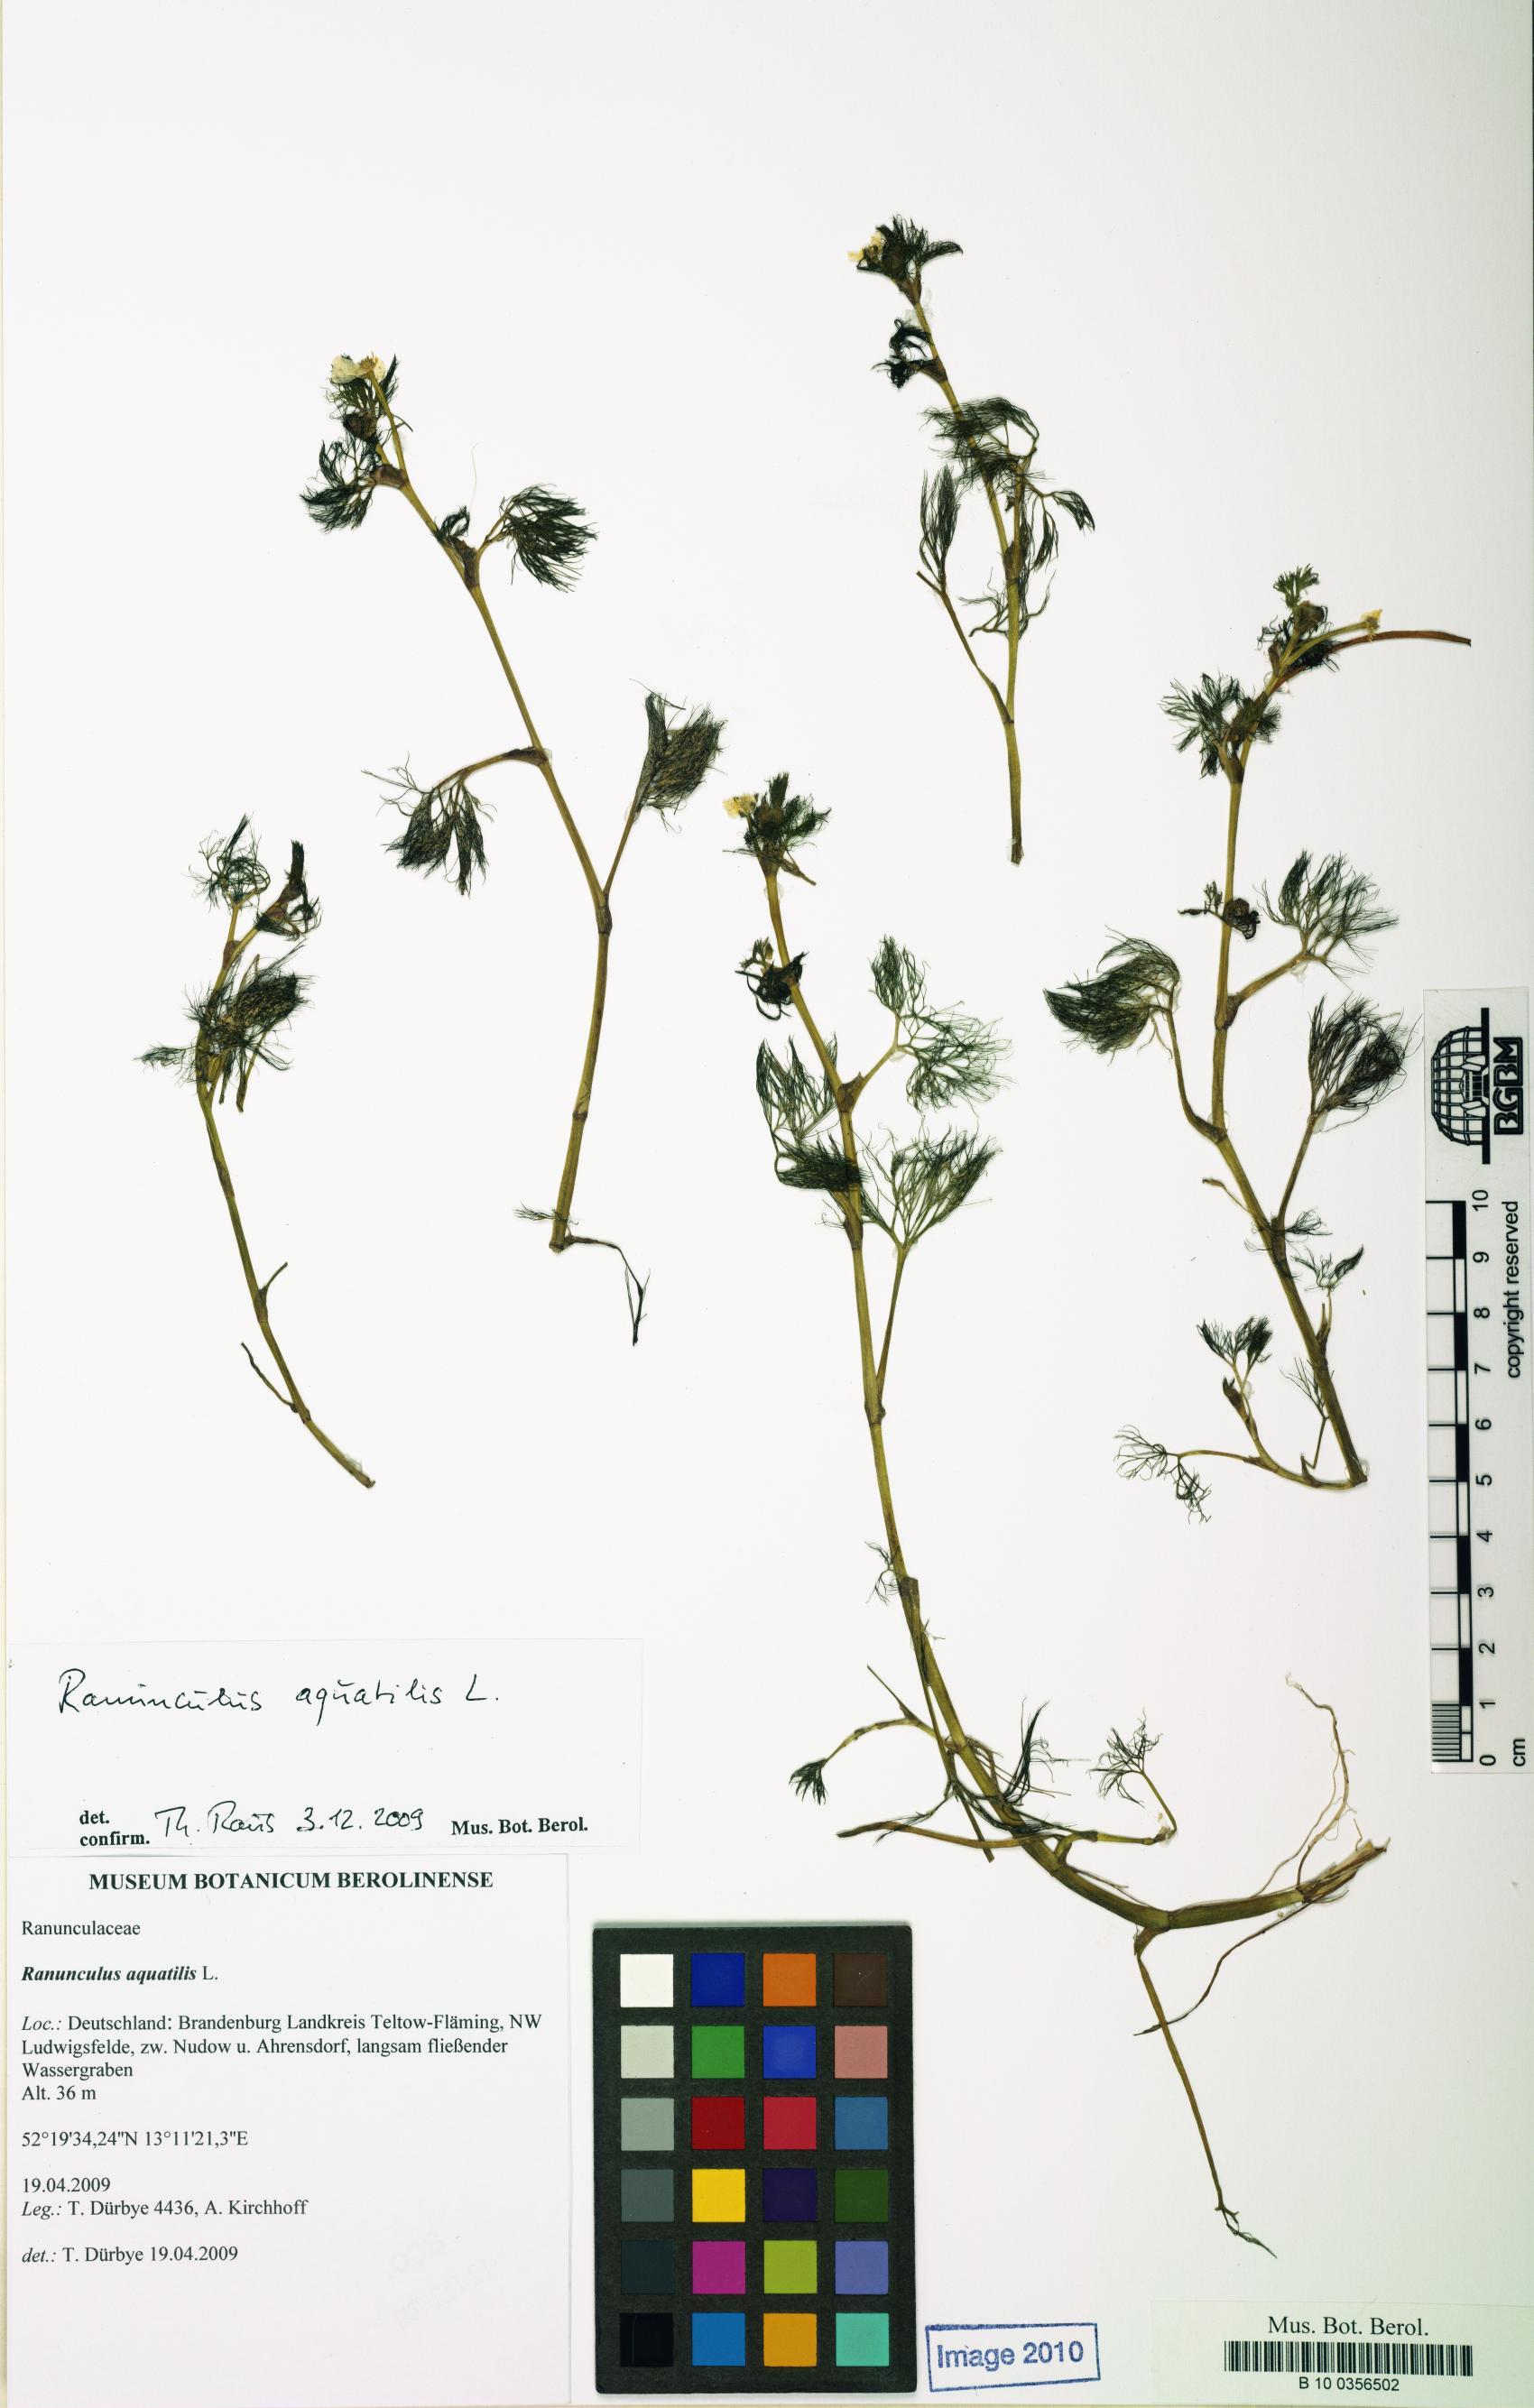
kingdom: Plantae
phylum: Tracheophyta
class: Magnoliopsida
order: Ranunculales
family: Ranunculaceae
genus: Ranunculus
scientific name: Ranunculus trichophyllus
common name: Thread-leaved water-crowfoot
